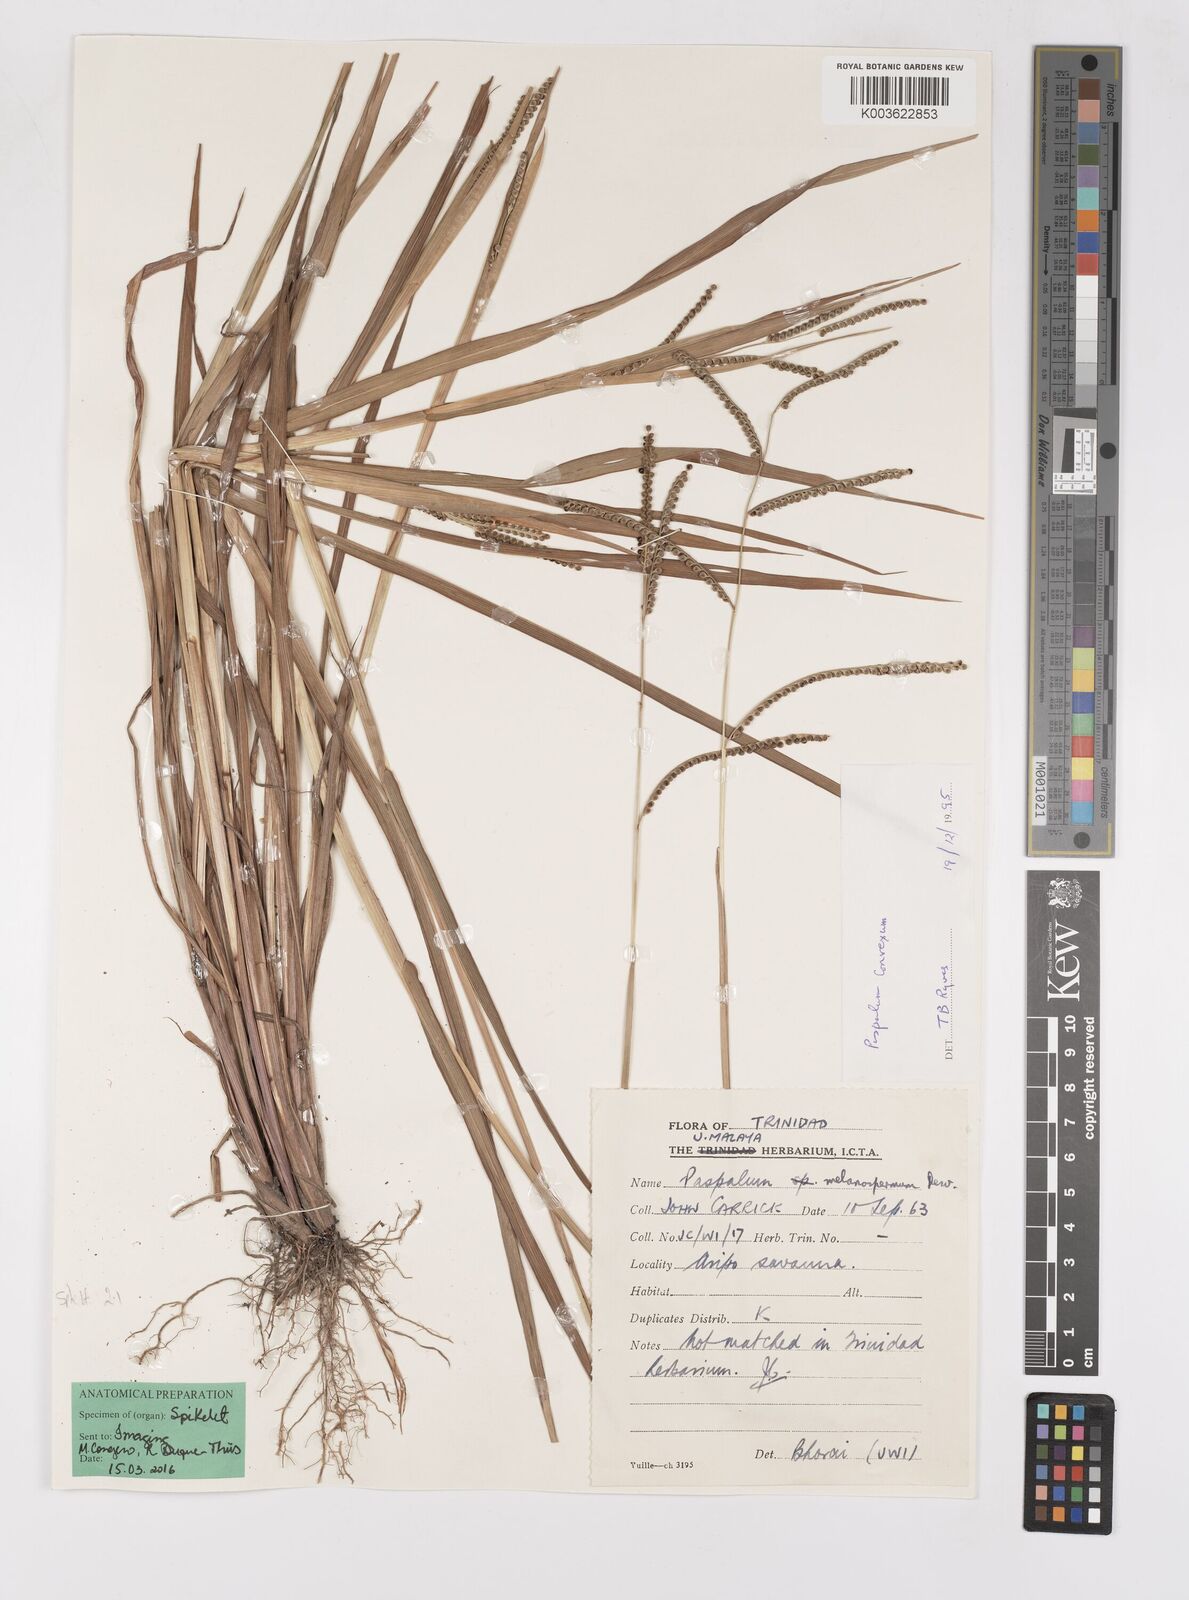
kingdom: Plantae
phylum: Tracheophyta
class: Liliopsida
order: Poales
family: Poaceae
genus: Paspalum
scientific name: Paspalum glabrinode
